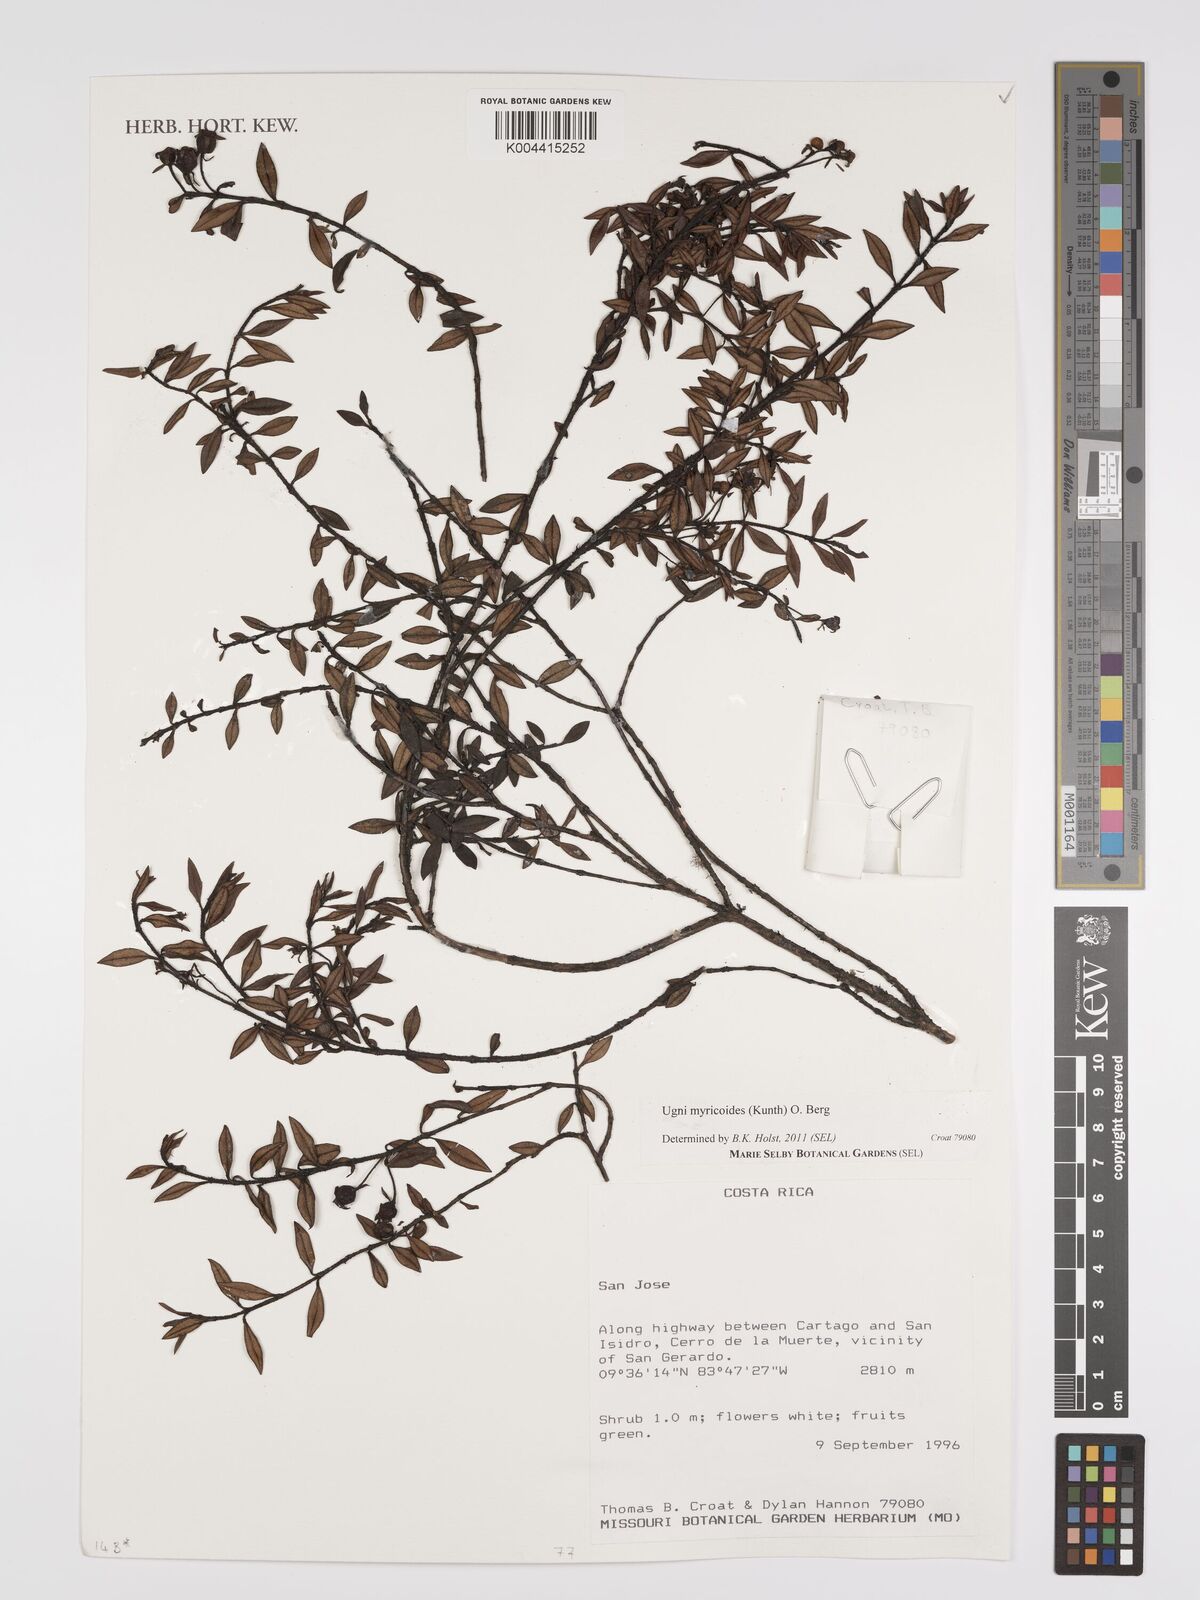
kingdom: Plantae
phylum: Tracheophyta
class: Magnoliopsida
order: Myrtales
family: Myrtaceae
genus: Ugni
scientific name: Ugni myricoides
